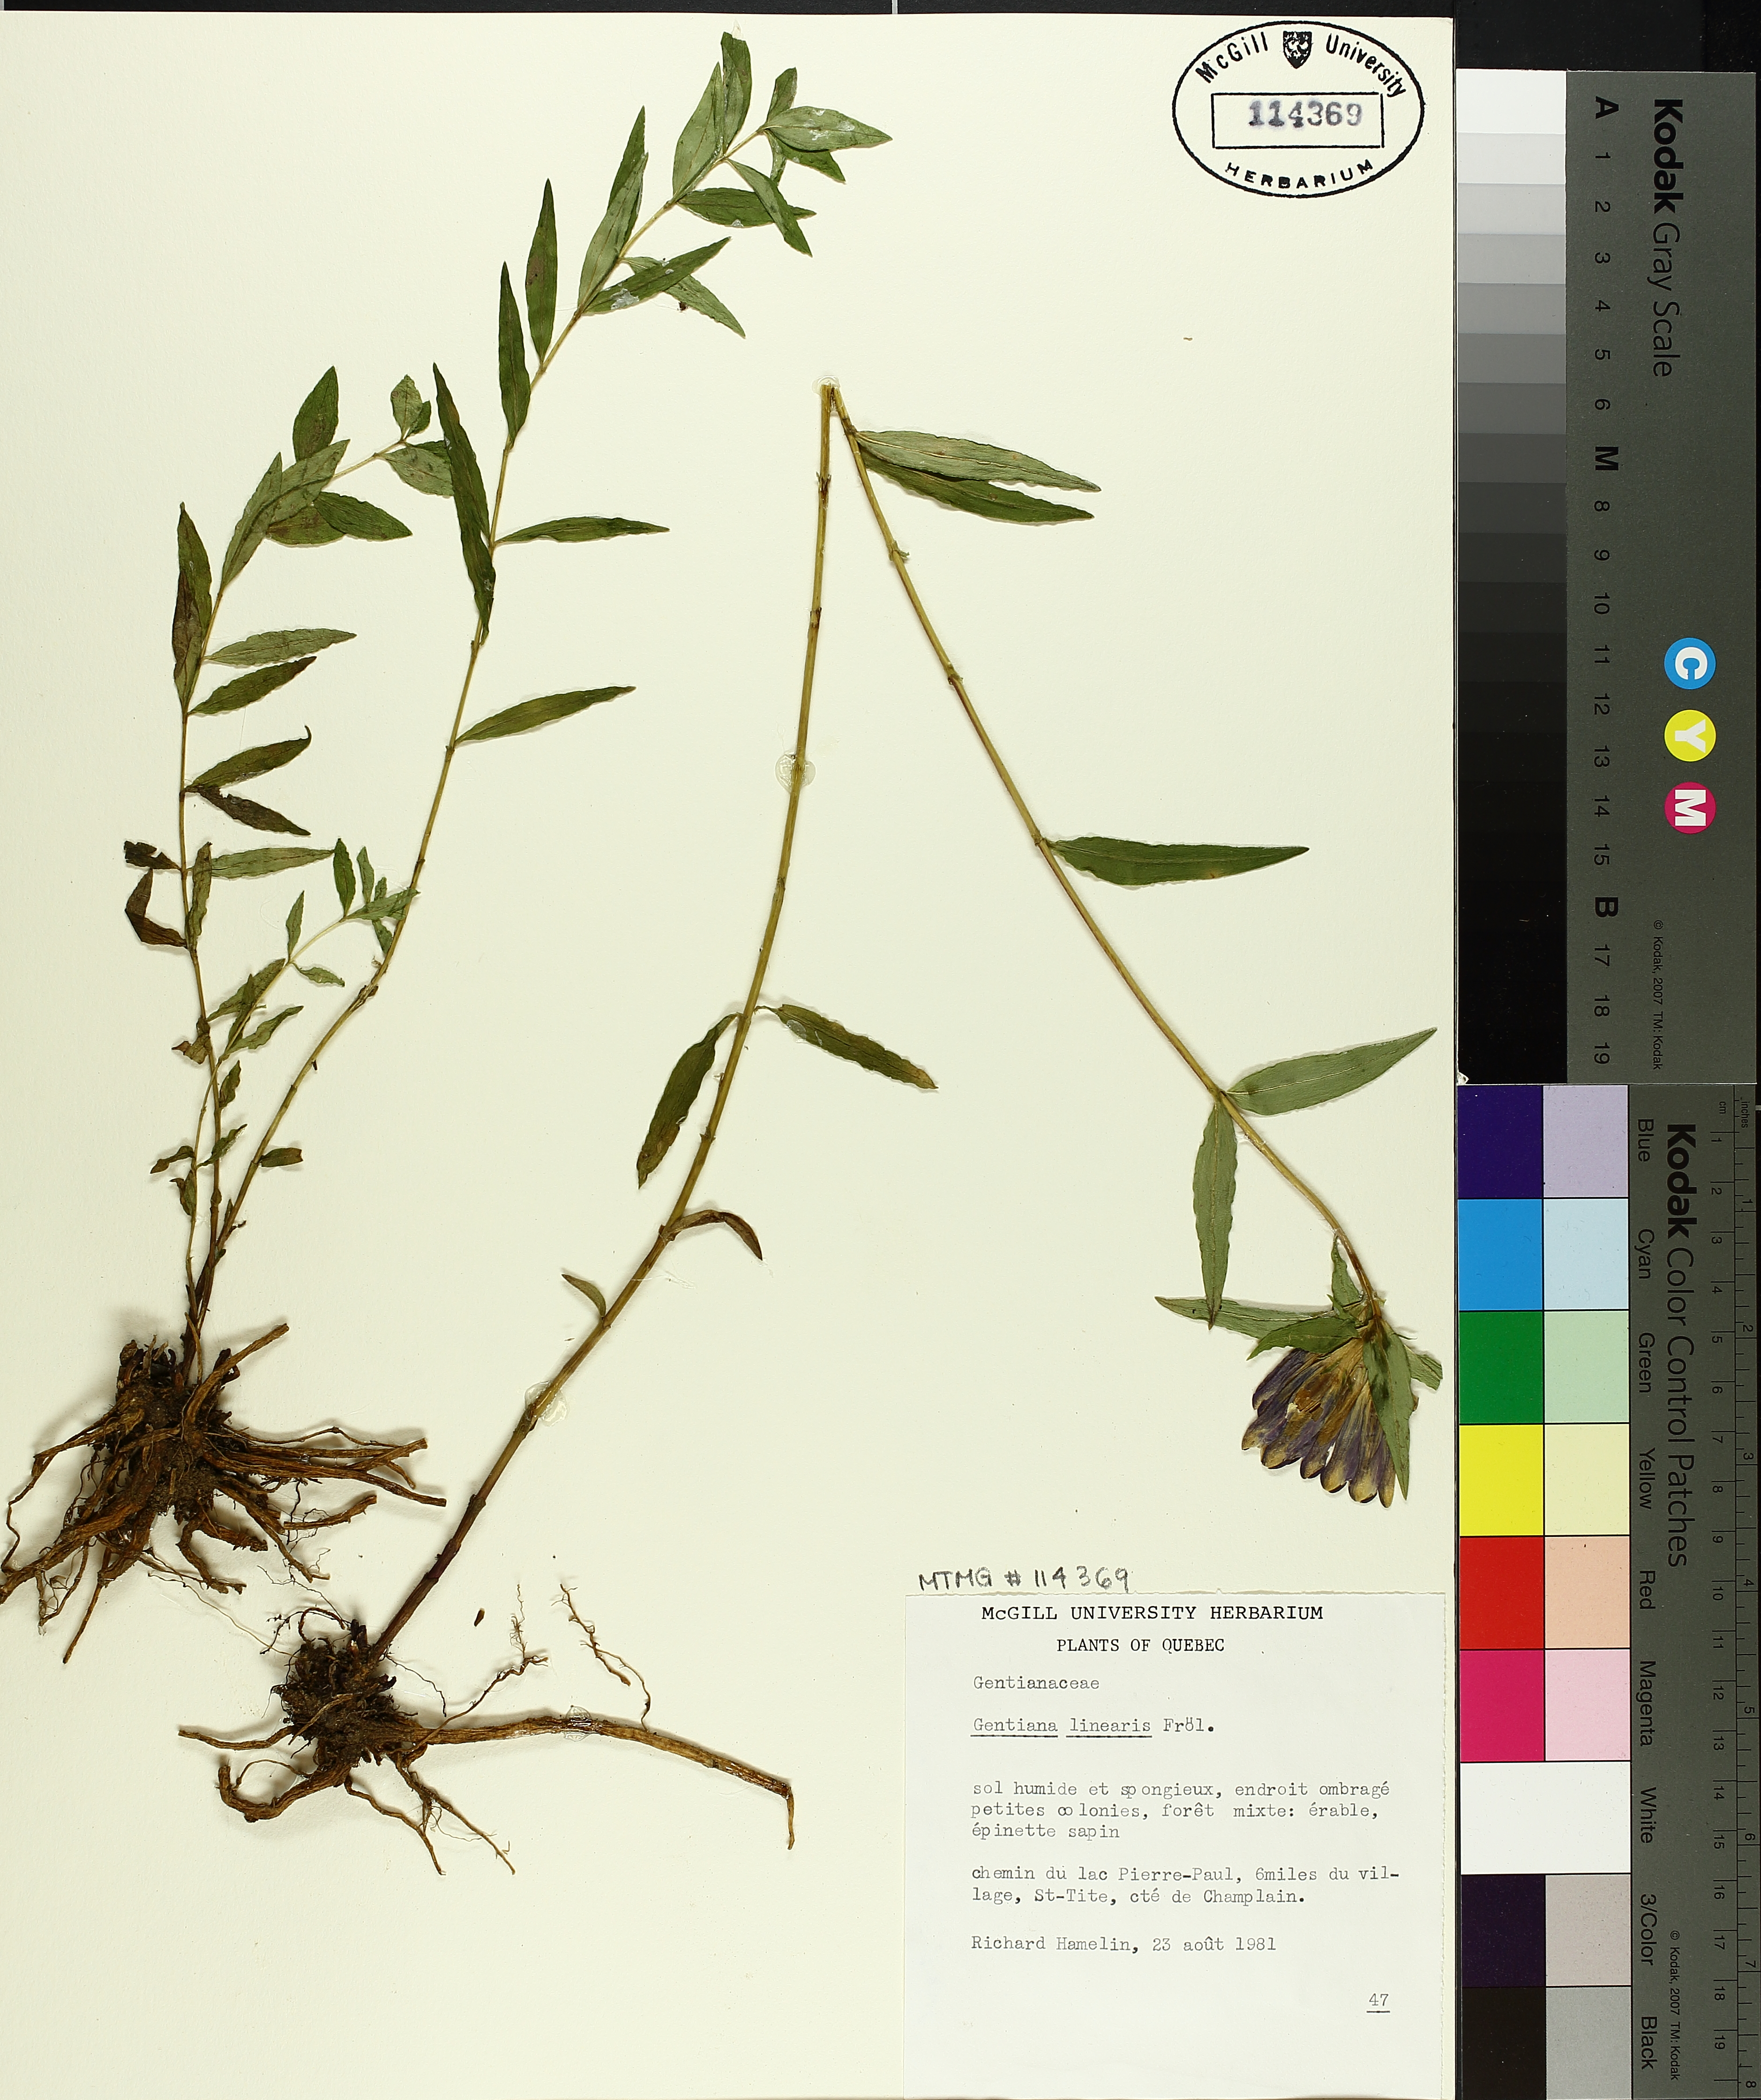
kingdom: Plantae
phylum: Tracheophyta
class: Magnoliopsida
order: Gentianales
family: Gentianaceae
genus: Gentiana
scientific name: Gentiana linearis
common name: Bastard gentian
